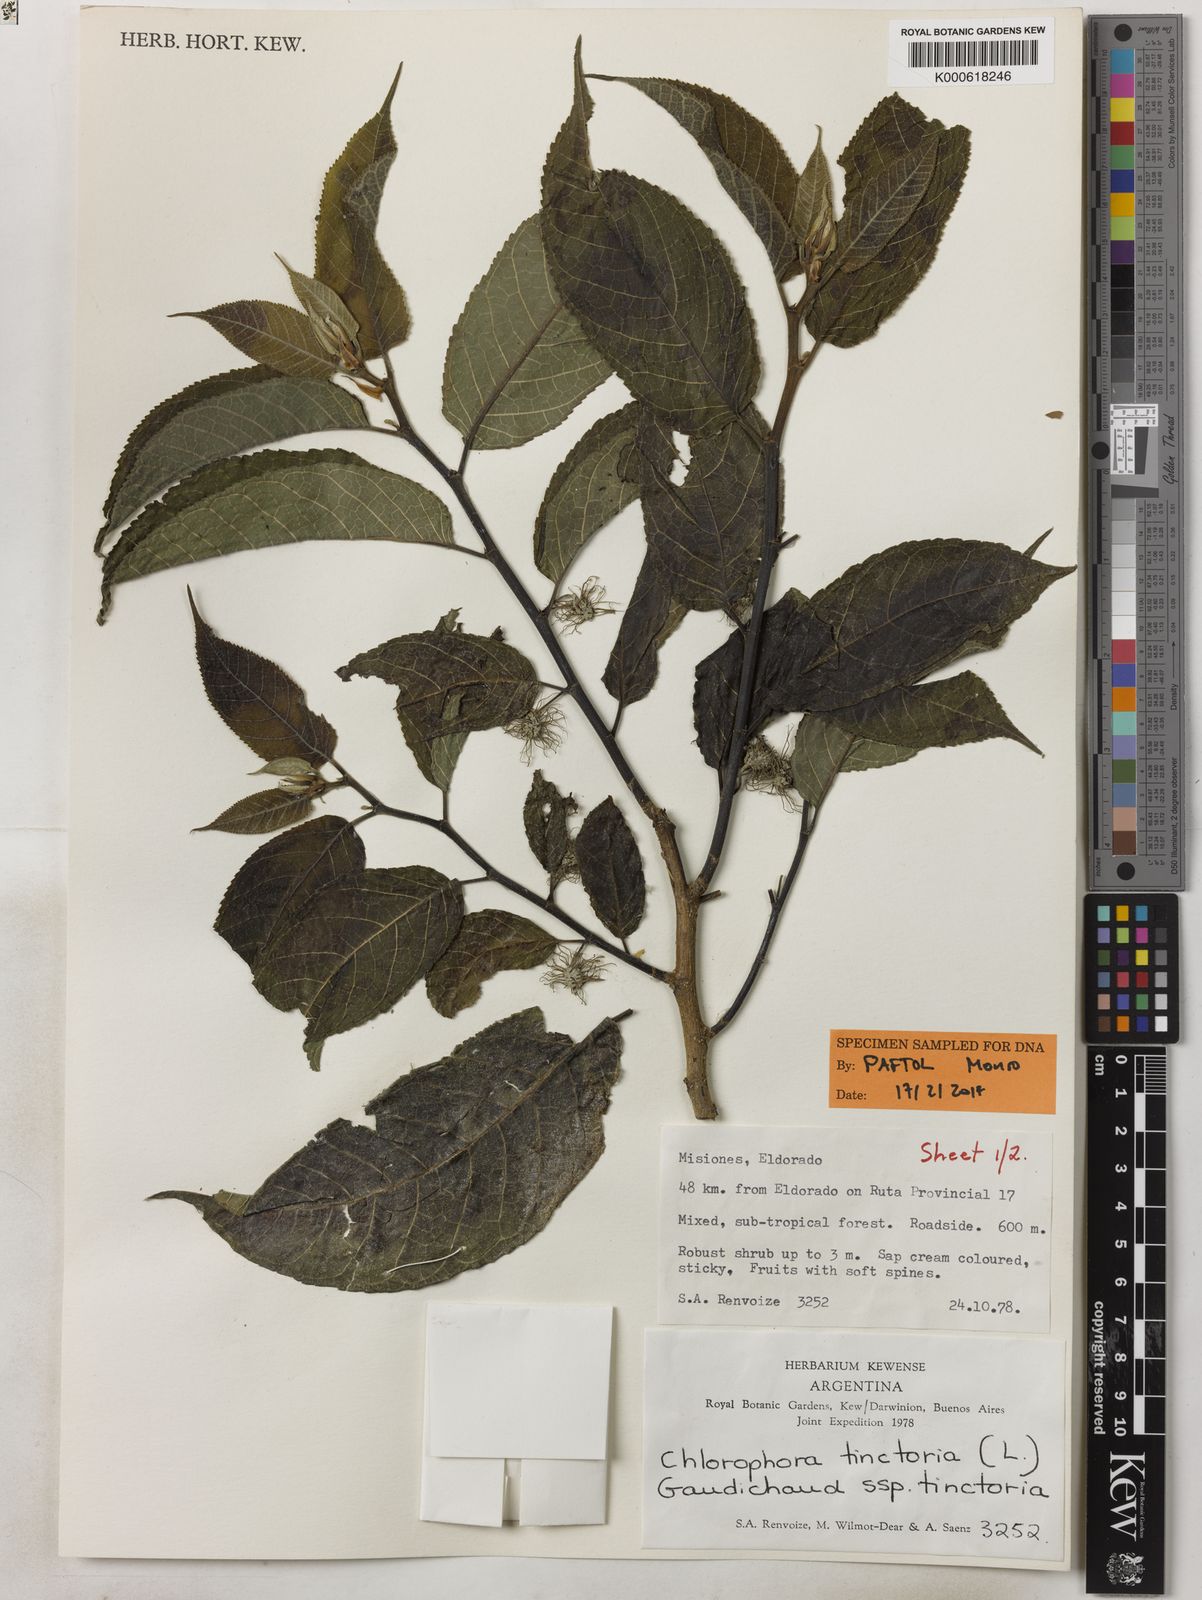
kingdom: Plantae
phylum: Tracheophyta
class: Magnoliopsida
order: Rosales
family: Moraceae
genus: Maclura
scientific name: Maclura tinctoria
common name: Old fustic
